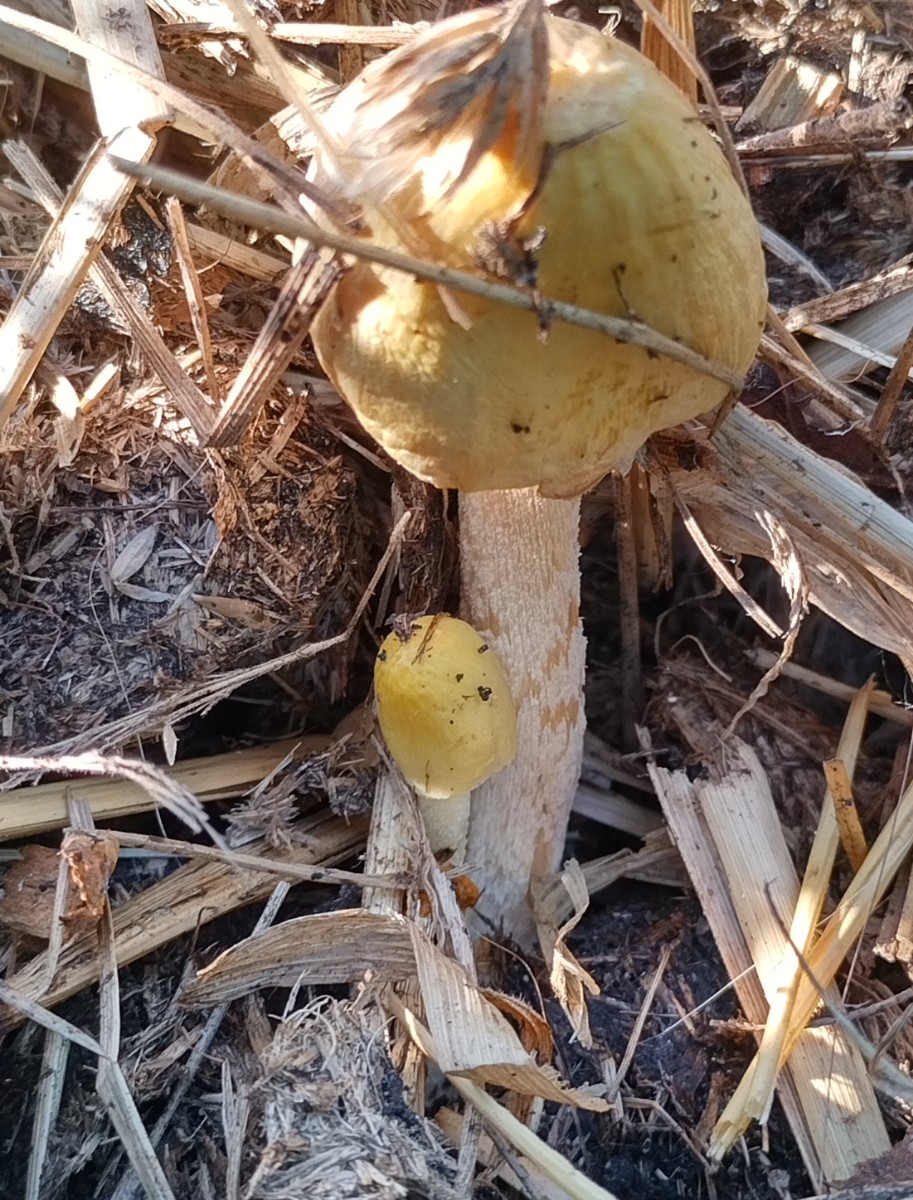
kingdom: Fungi
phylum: Basidiomycota
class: Agaricomycetes
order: Agaricales
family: Bolbitiaceae
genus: Bolbitius
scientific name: Bolbitius titubans
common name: almindelig gulhat
